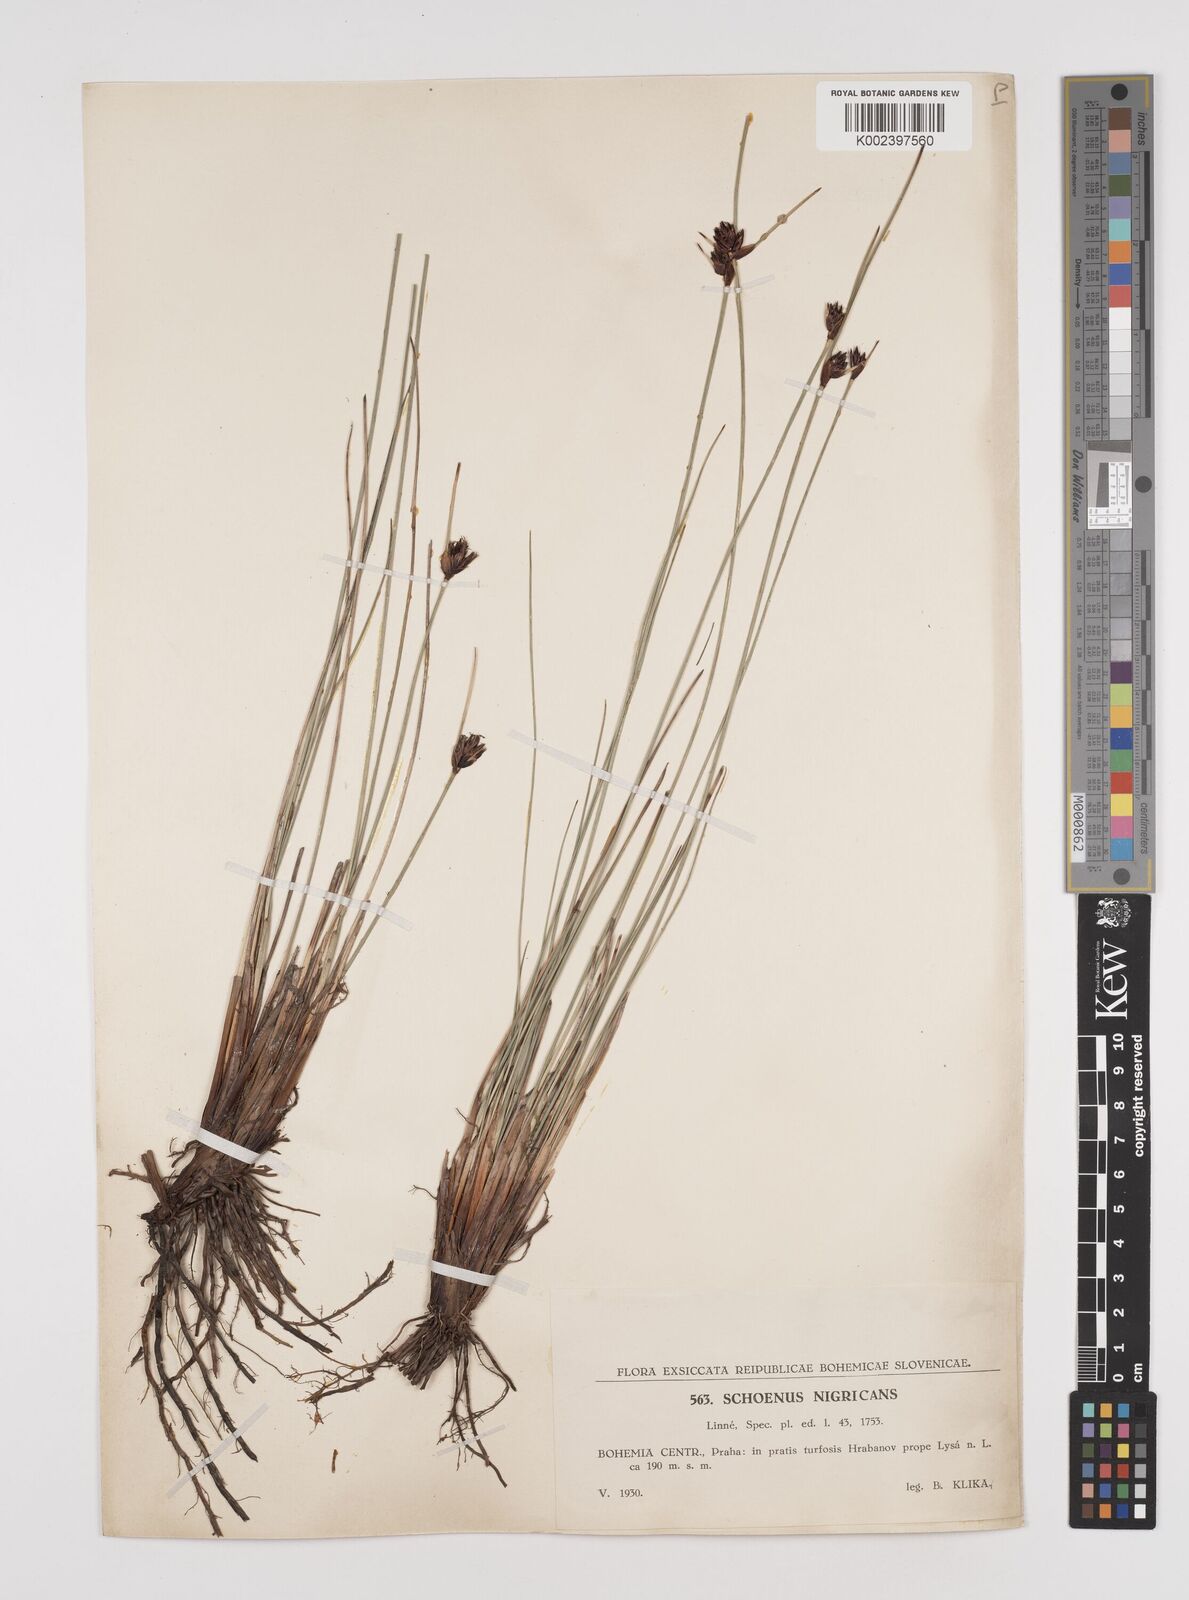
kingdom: Plantae
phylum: Tracheophyta
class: Liliopsida
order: Poales
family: Cyperaceae
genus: Schoenus
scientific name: Schoenus nigricans
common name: Black bog-rush
